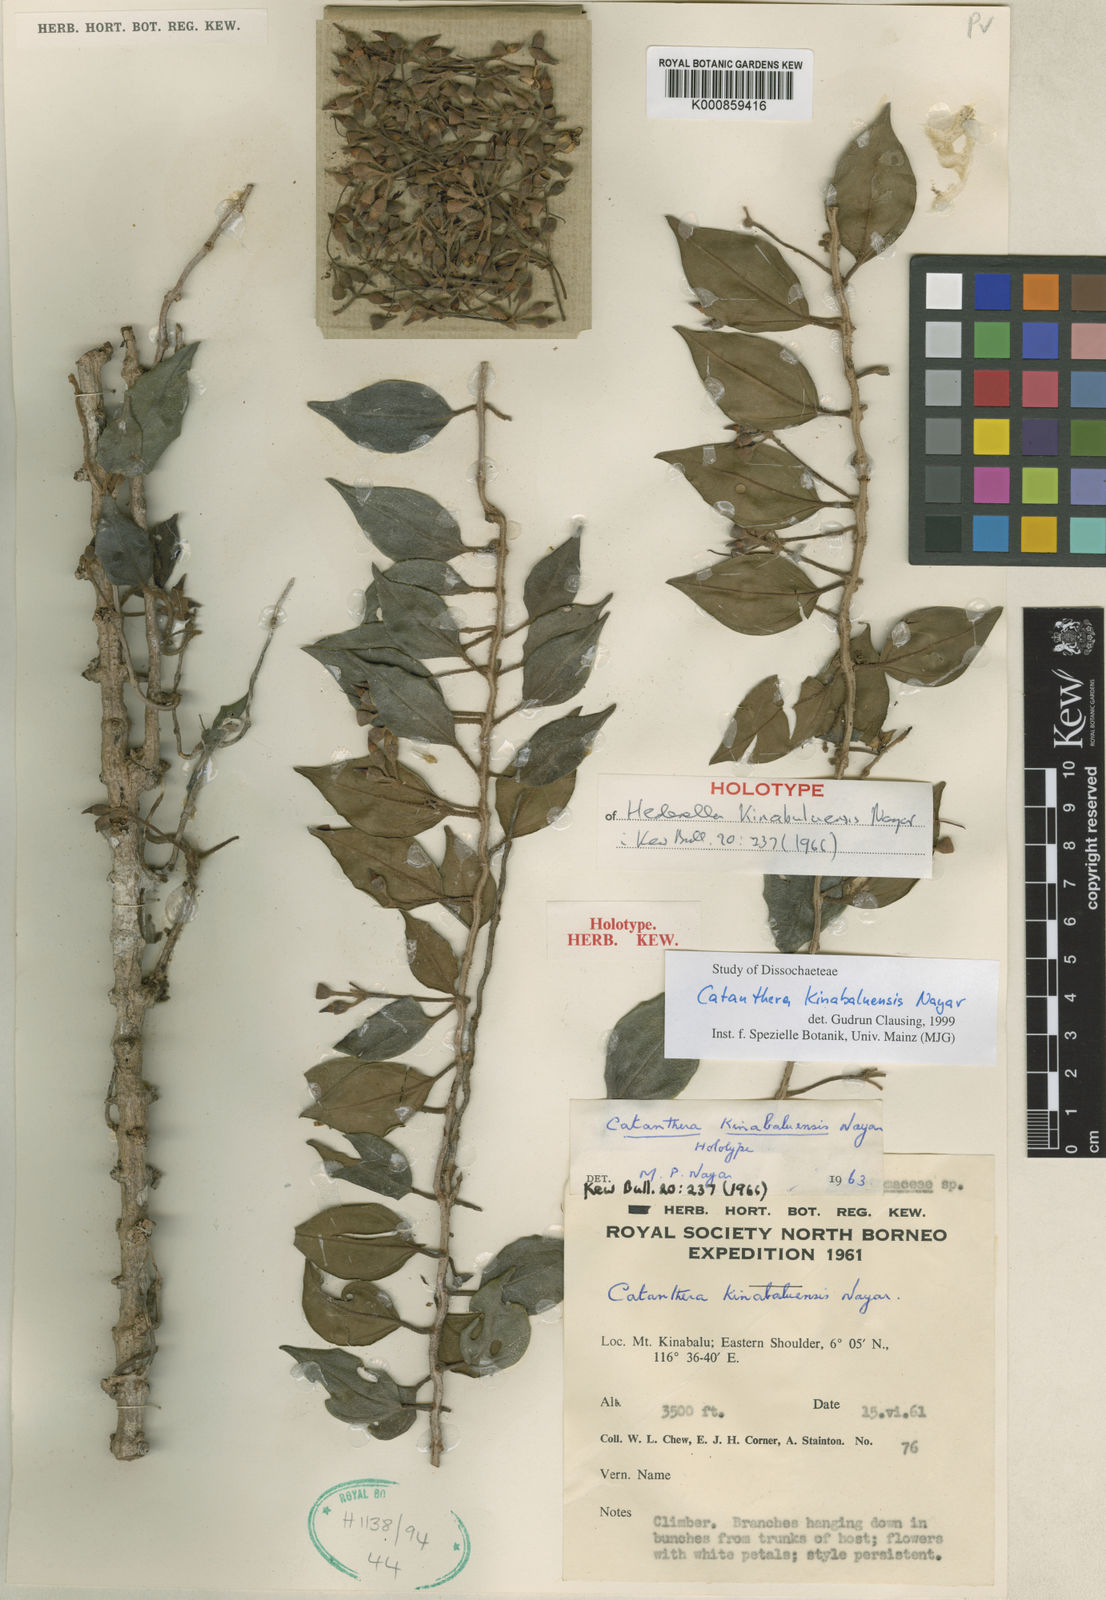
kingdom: Plantae
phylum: Tracheophyta
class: Magnoliopsida
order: Myrtales
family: Melastomataceae
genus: Catanthera
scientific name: Catanthera kinabaluensis
